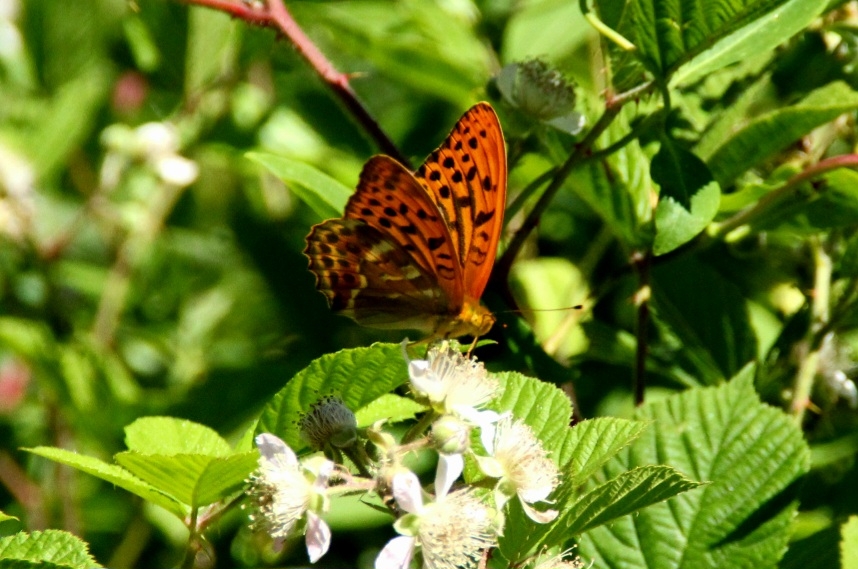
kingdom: Animalia
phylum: Arthropoda
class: Insecta
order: Lepidoptera
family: Nymphalidae
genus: Argynnis
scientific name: Argynnis paphia
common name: Kejserkåbe
